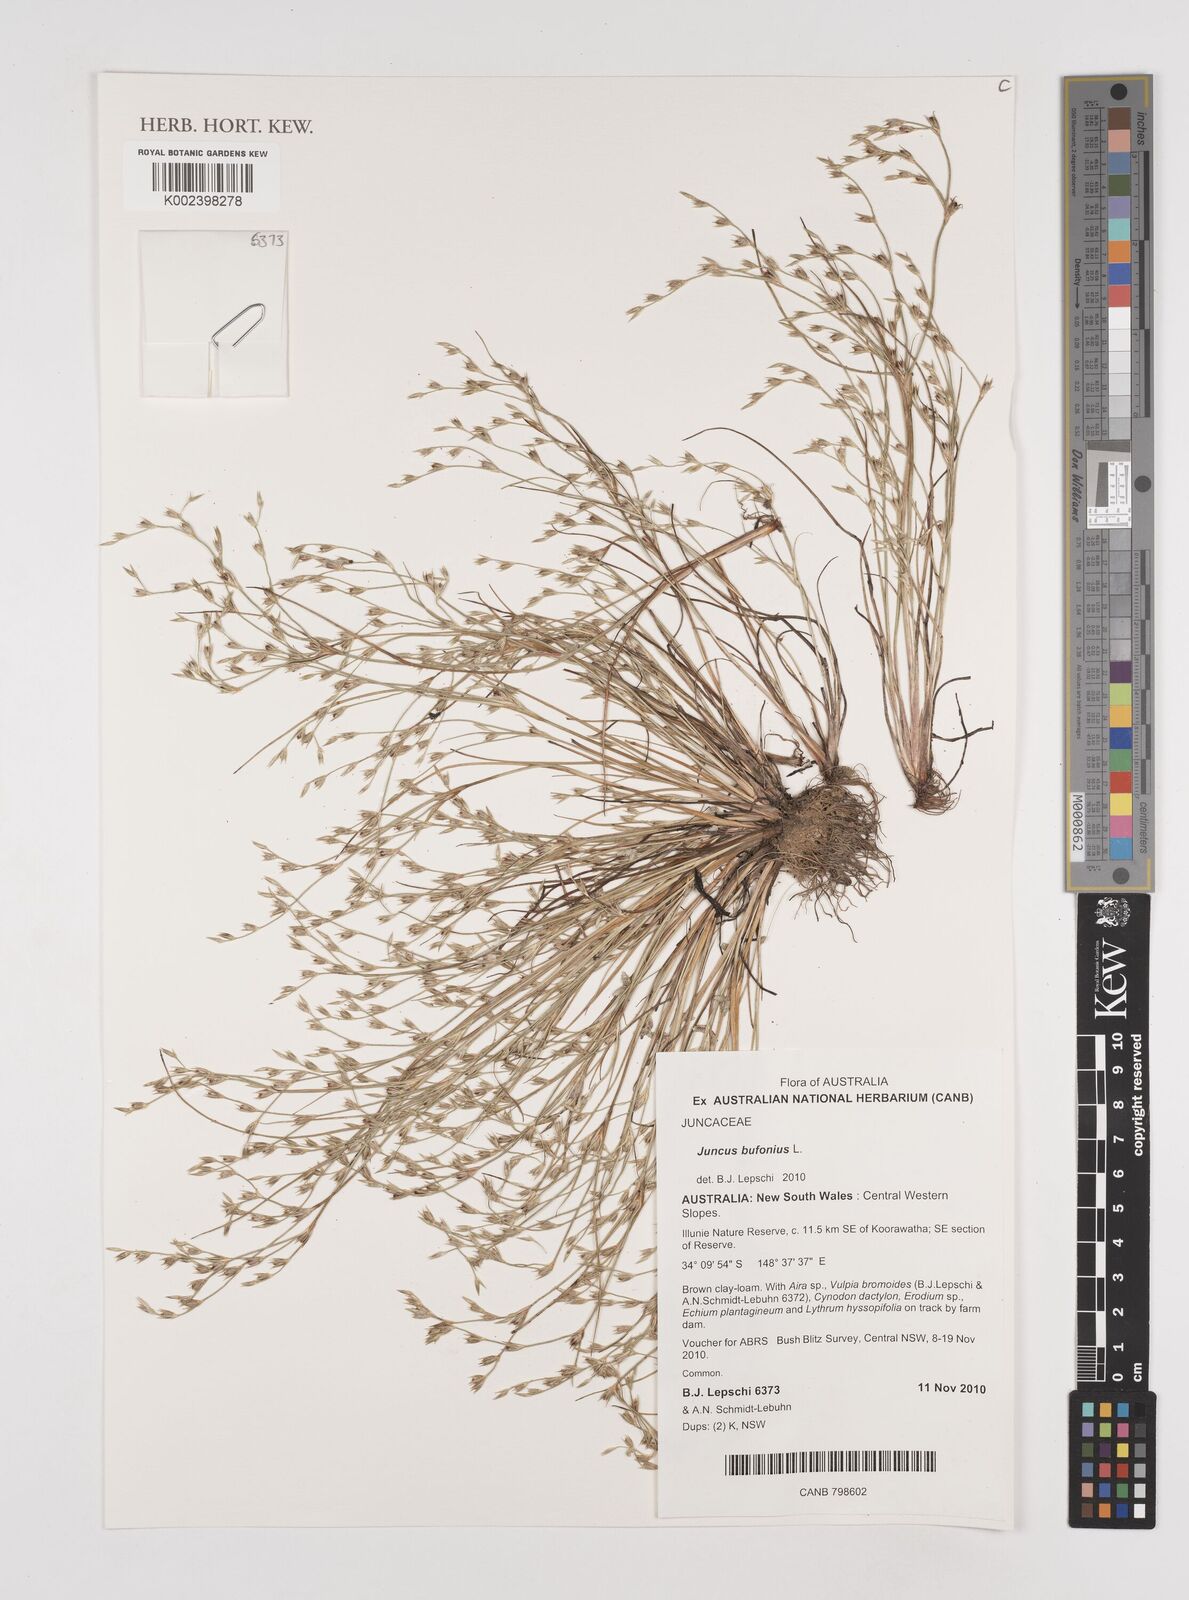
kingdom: Plantae
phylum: Tracheophyta
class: Liliopsida
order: Poales
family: Juncaceae
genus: Juncus
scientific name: Juncus ranarius
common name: Frog rush
